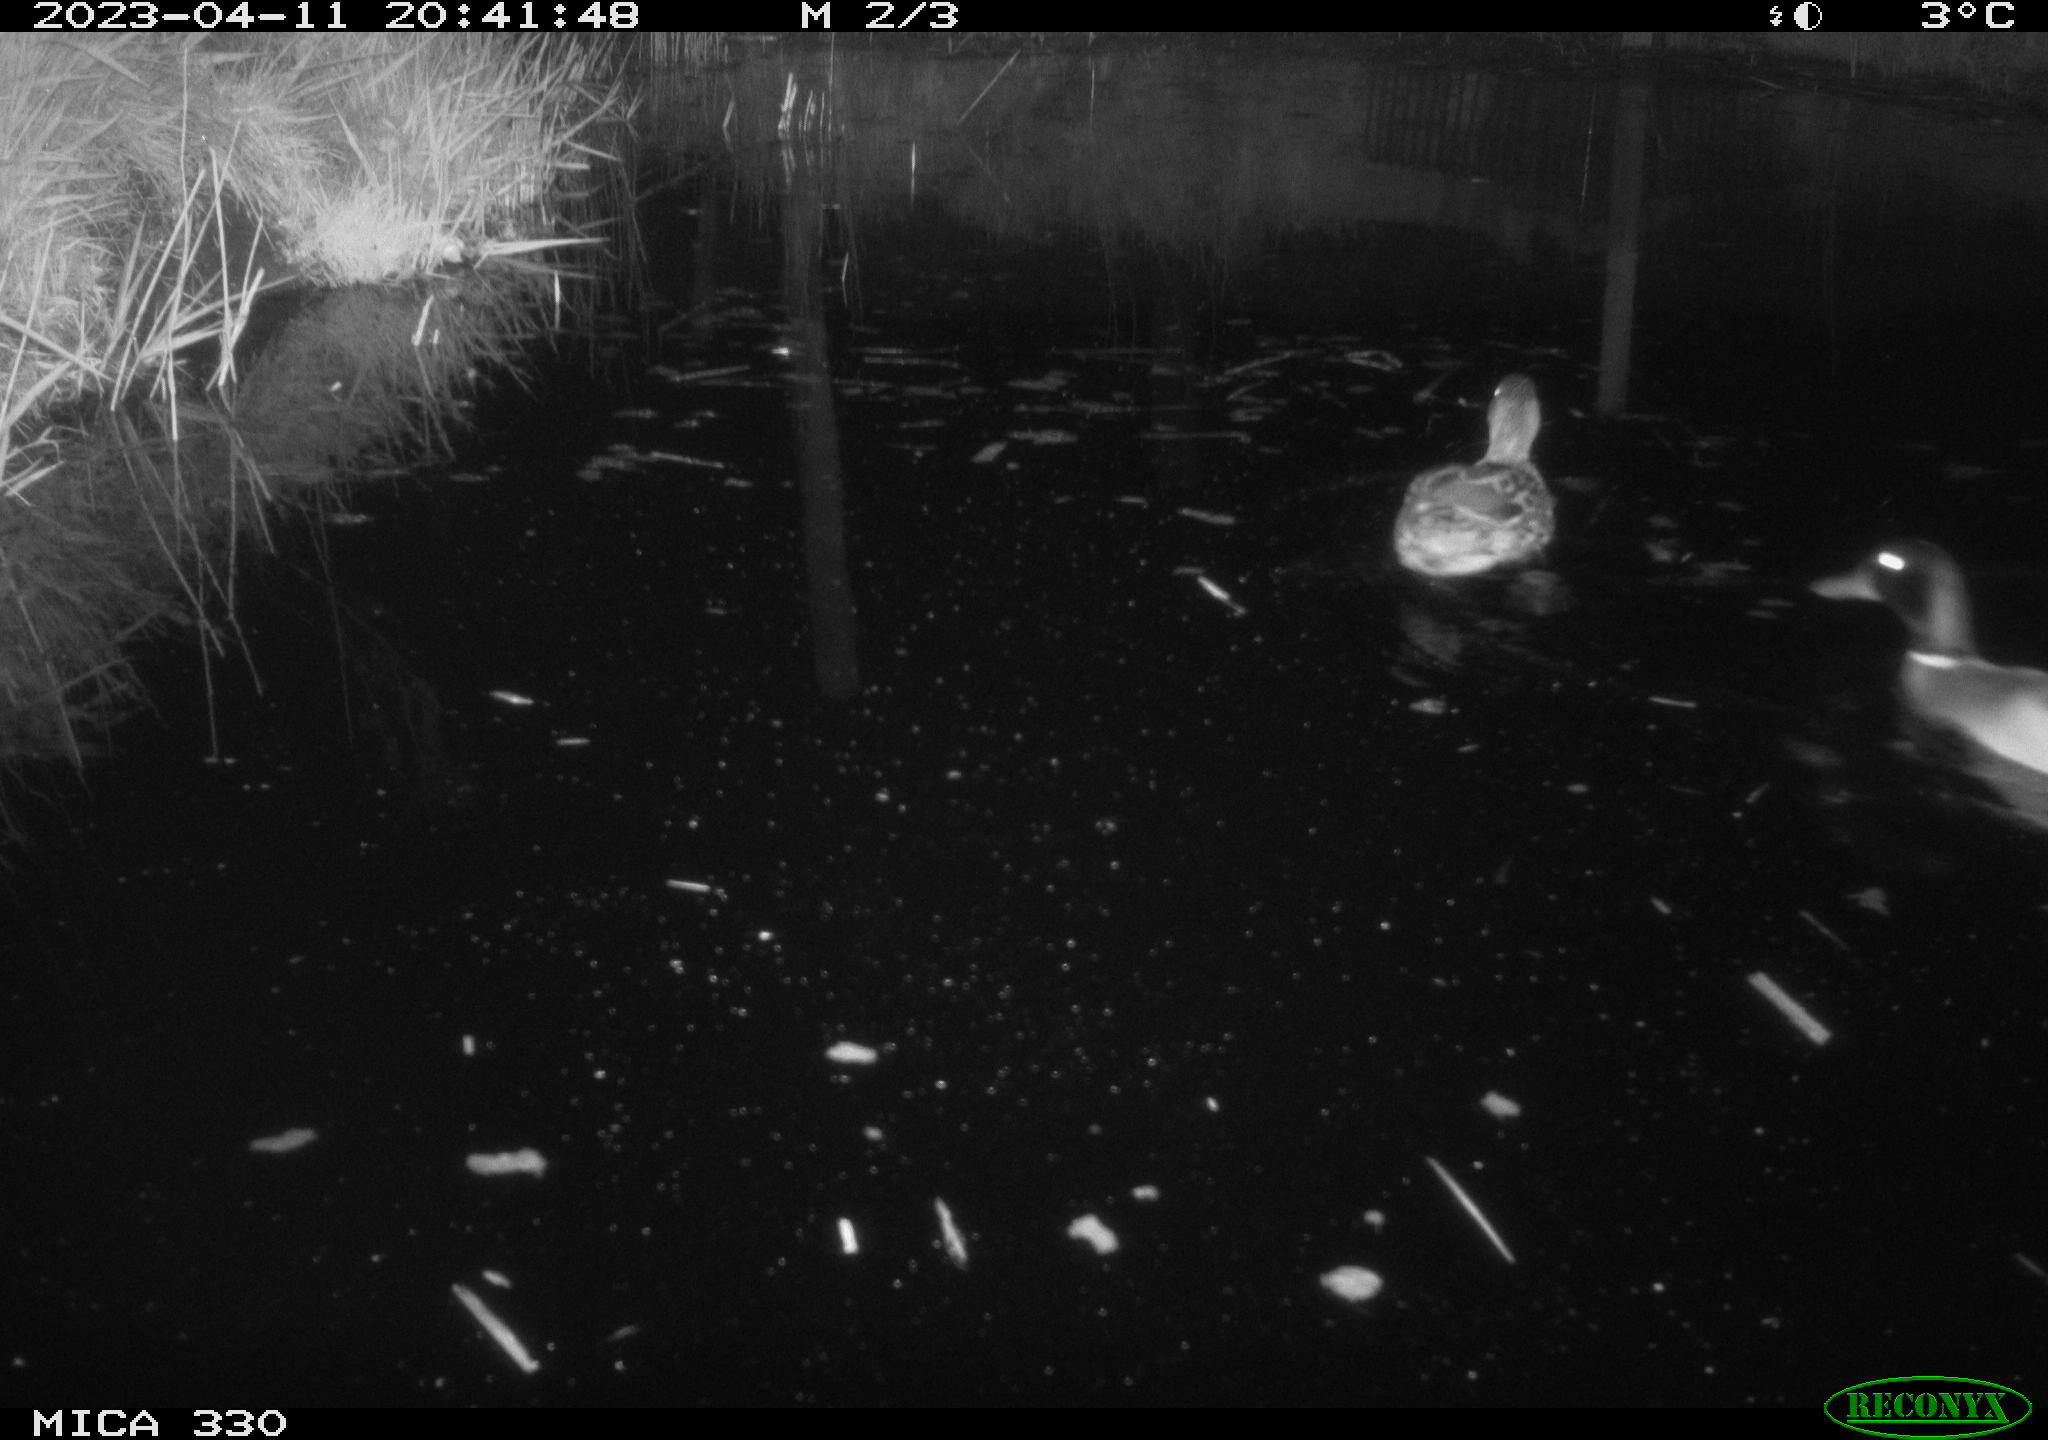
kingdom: Animalia
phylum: Chordata
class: Aves
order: Anseriformes
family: Anatidae
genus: Anas
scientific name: Anas
